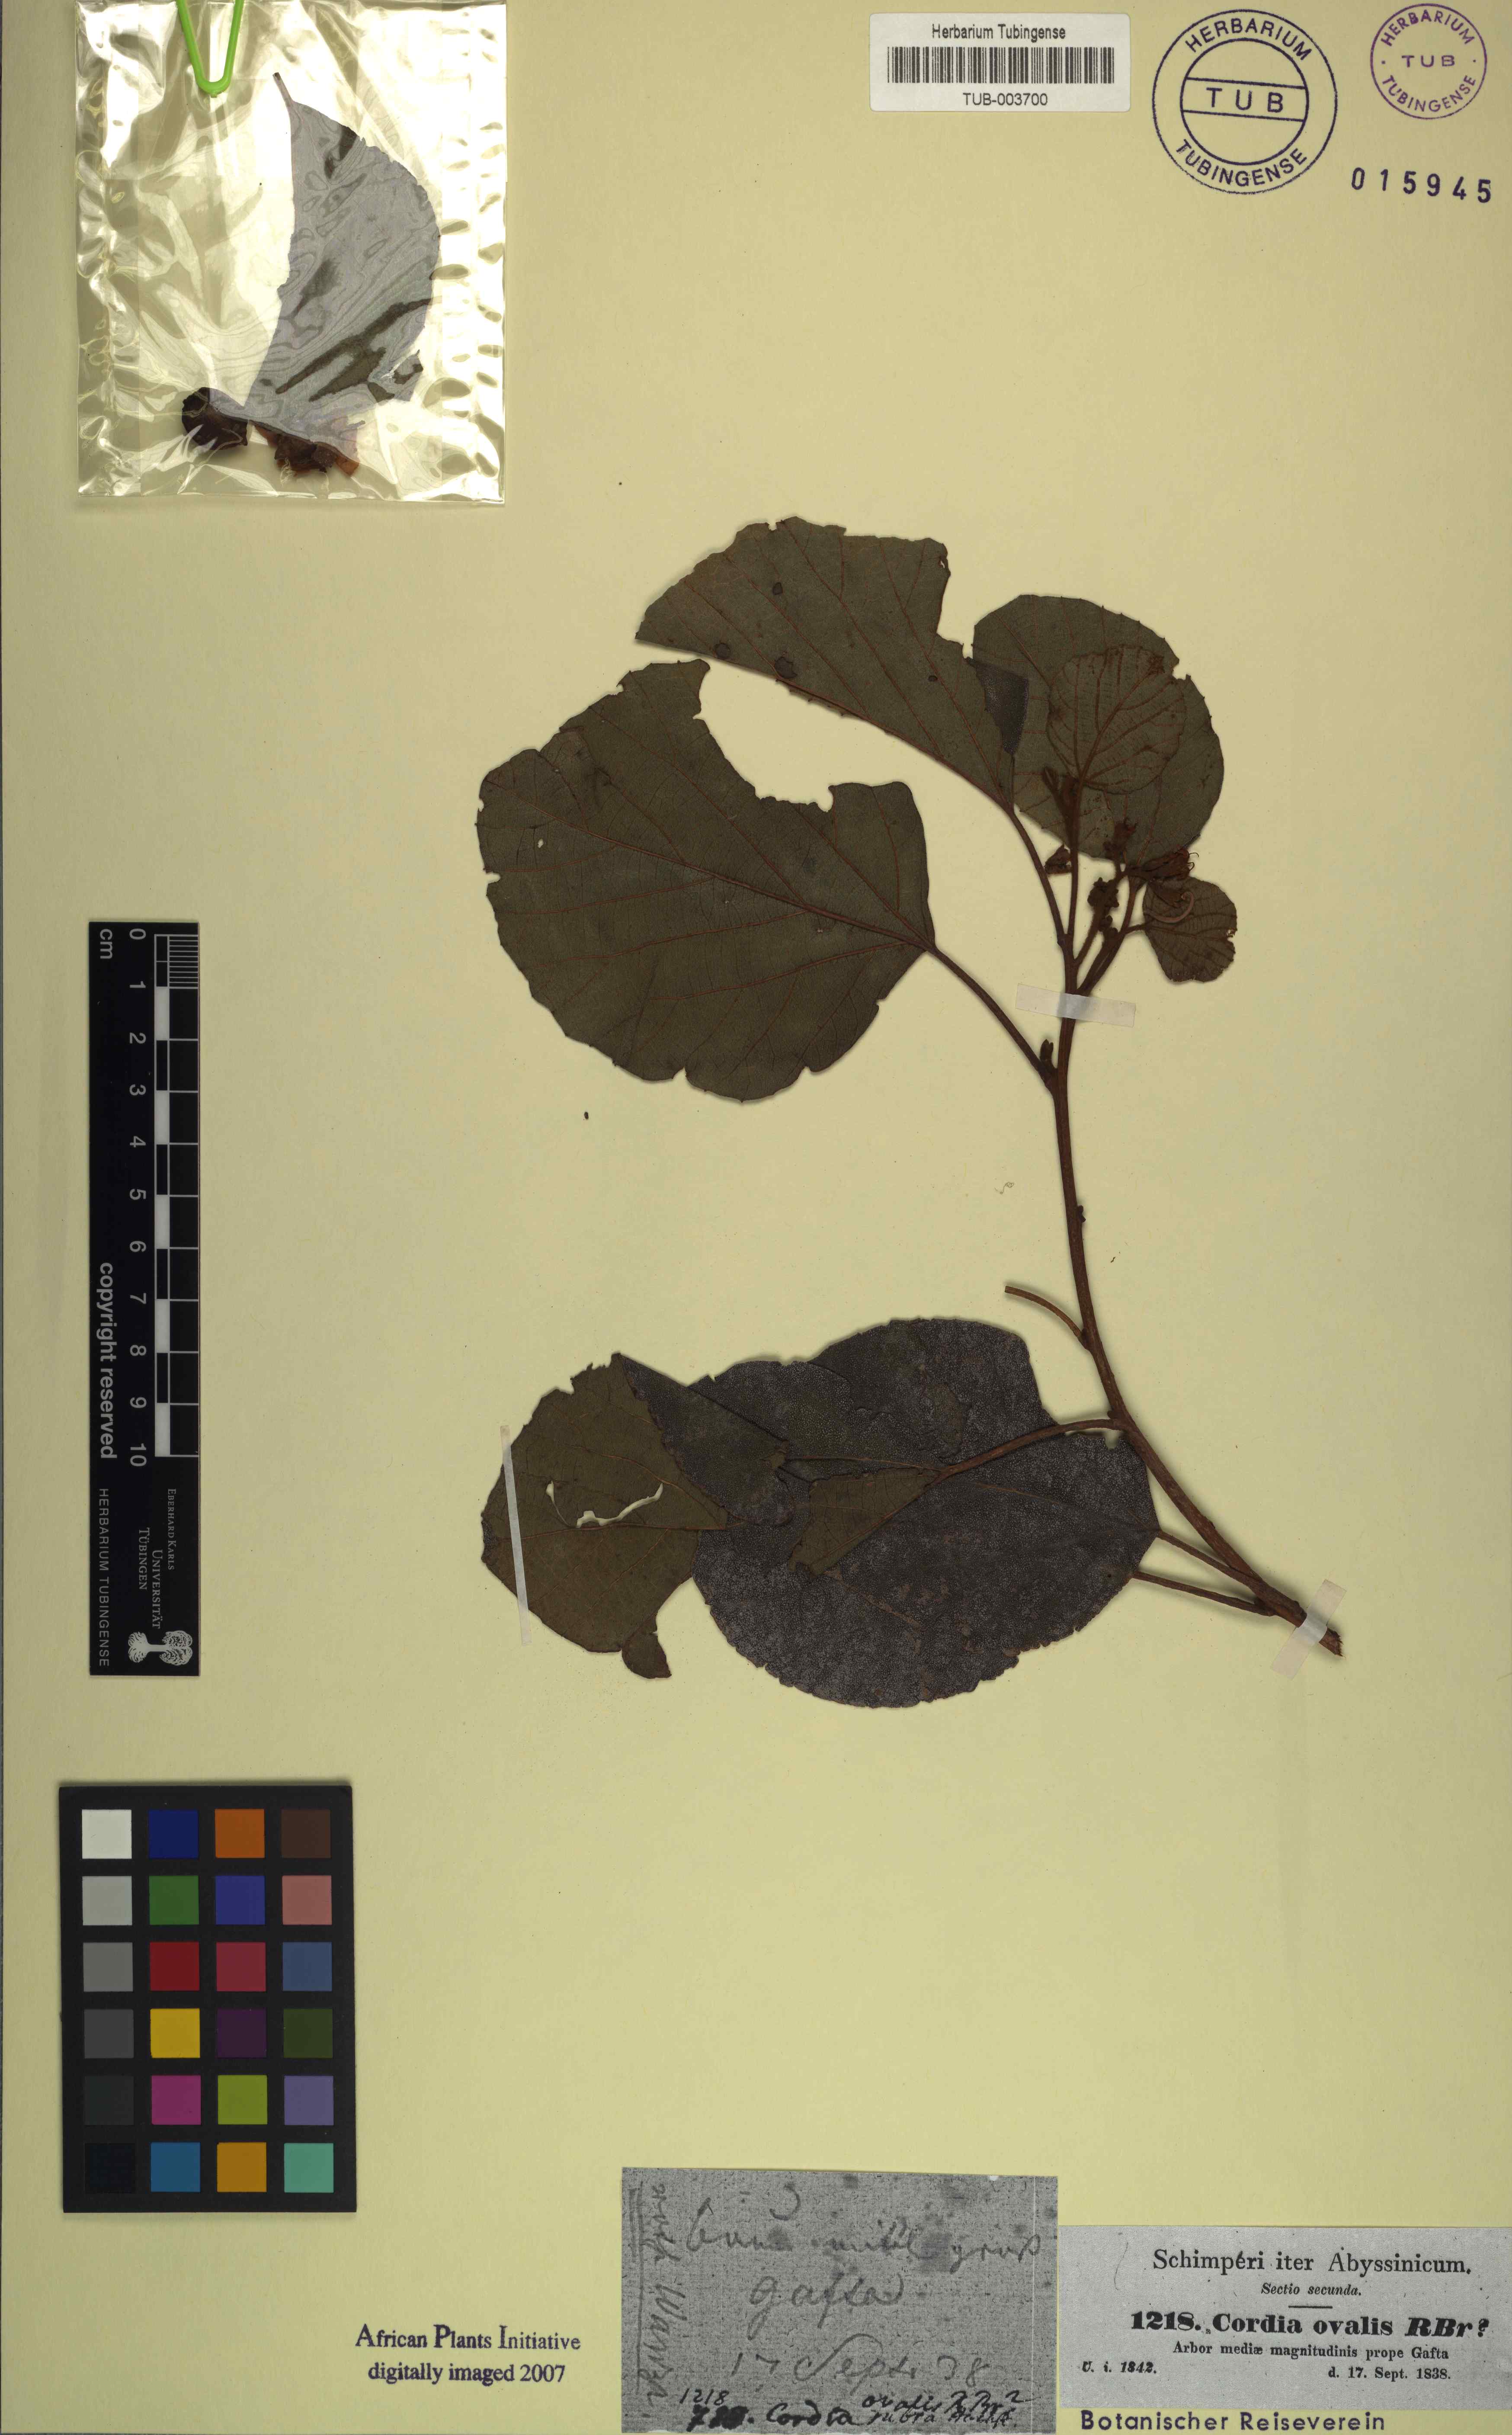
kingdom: Plantae
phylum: Tracheophyta
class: Magnoliopsida
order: Boraginales
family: Cordiaceae
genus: Cordia
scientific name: Cordia monoica
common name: Snot berry
